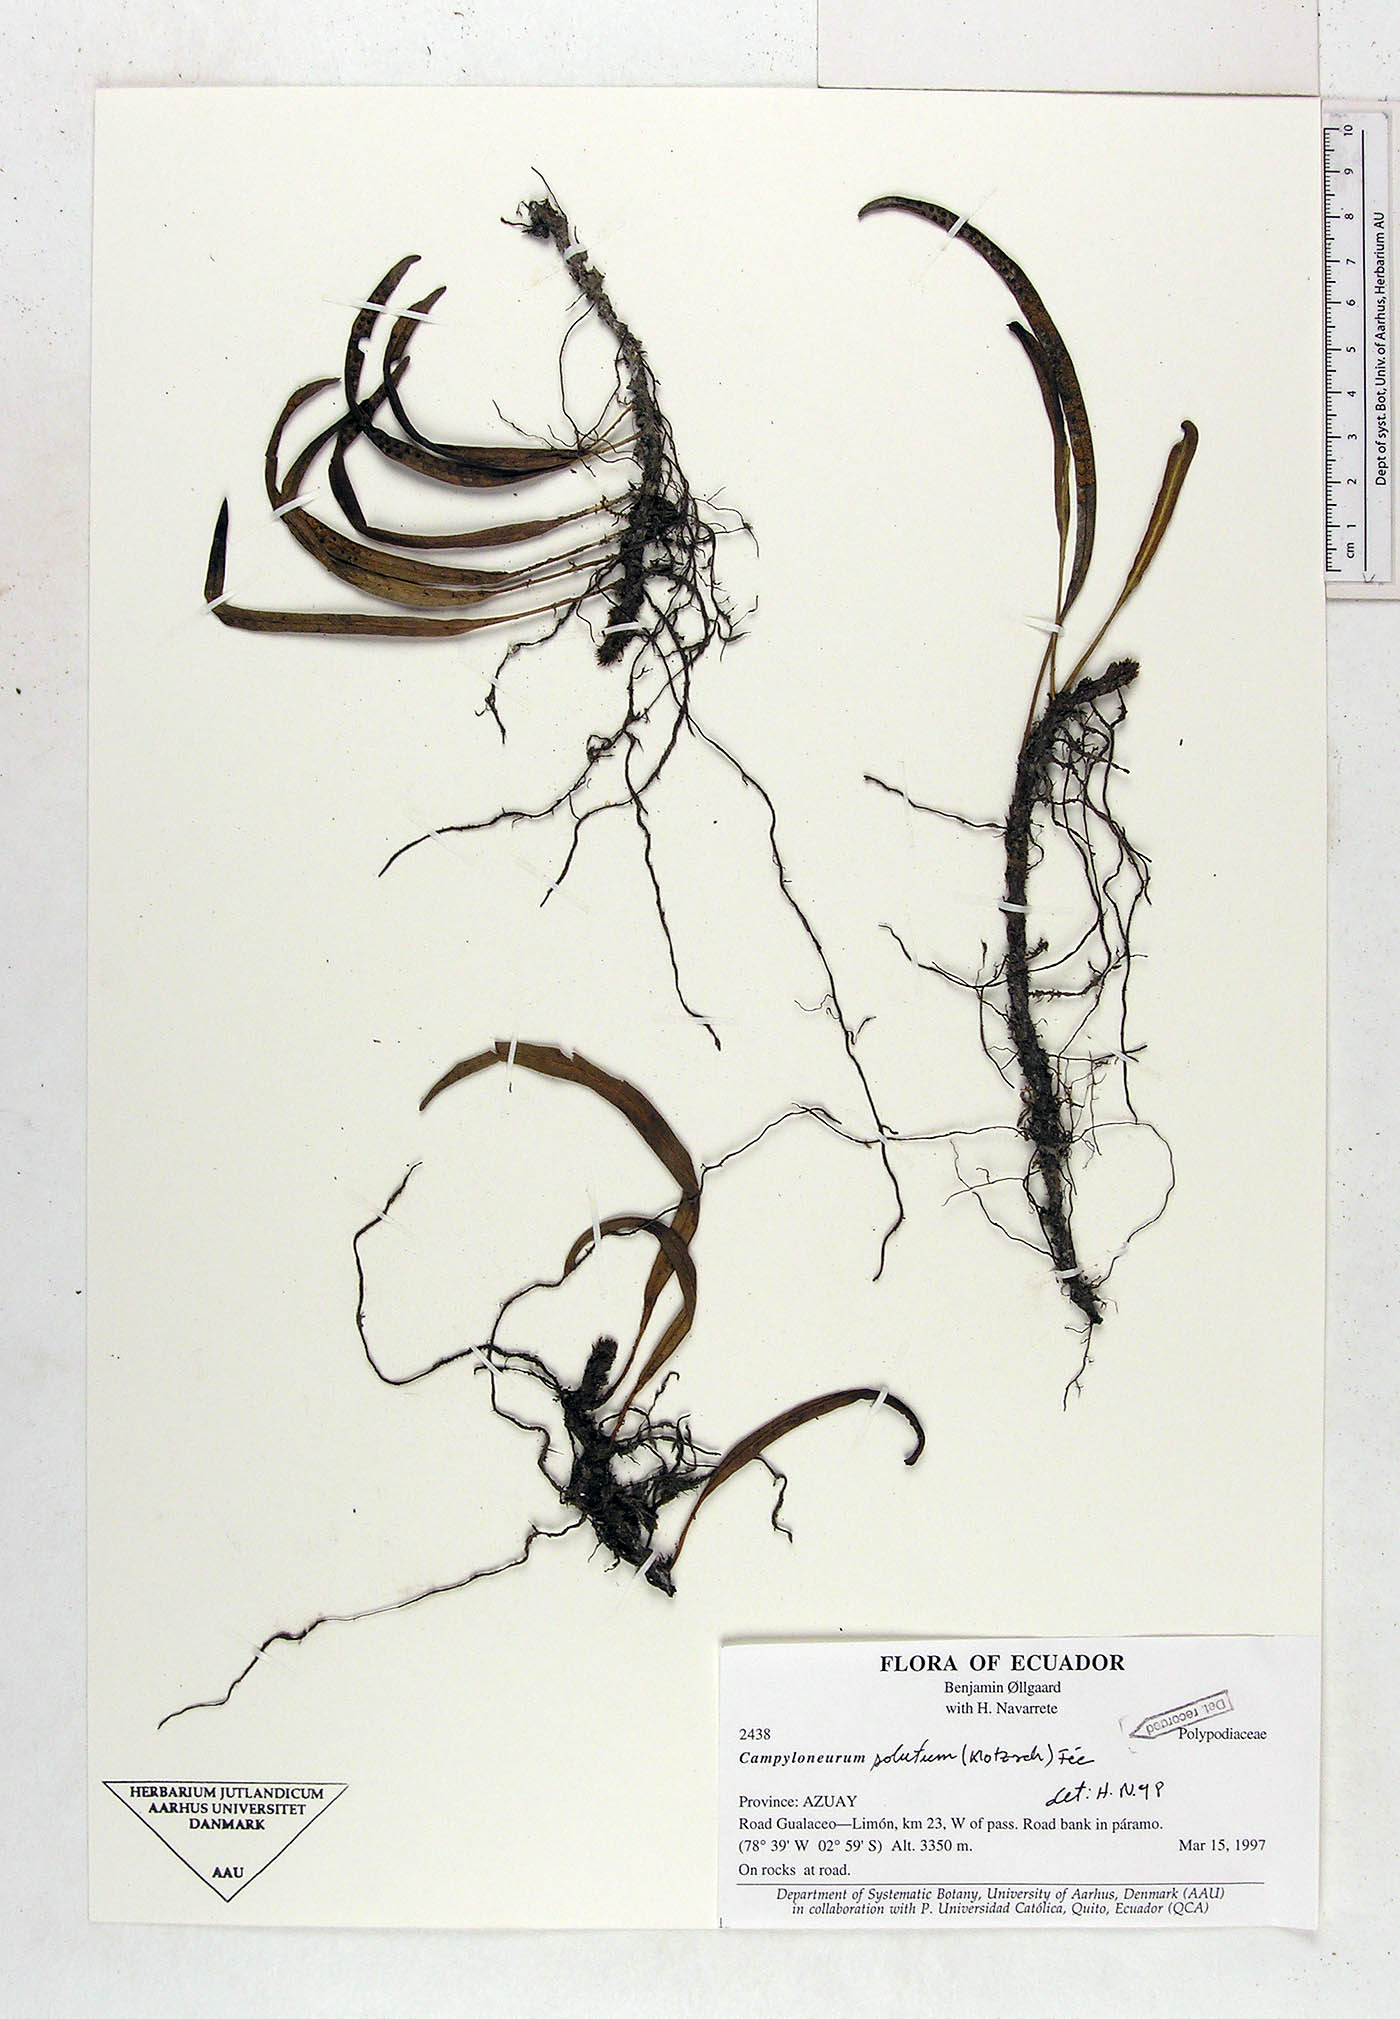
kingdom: Plantae
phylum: Tracheophyta
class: Polypodiopsida
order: Polypodiales
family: Polypodiaceae
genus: Campyloneurum
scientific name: Campyloneurum solutum
